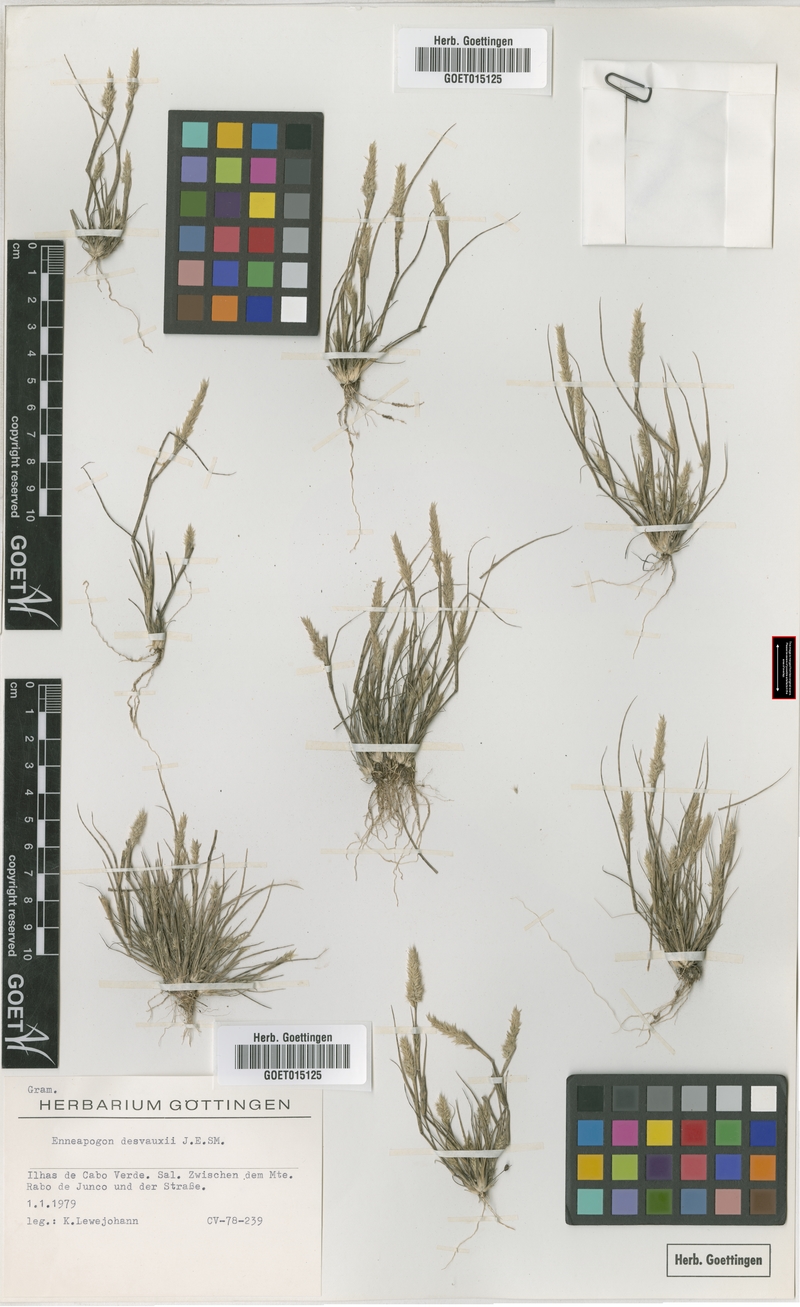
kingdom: Plantae
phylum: Tracheophyta
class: Liliopsida
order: Poales
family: Poaceae
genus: Enneapogon
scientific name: Enneapogon desvauxii
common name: Feather pappus grass
